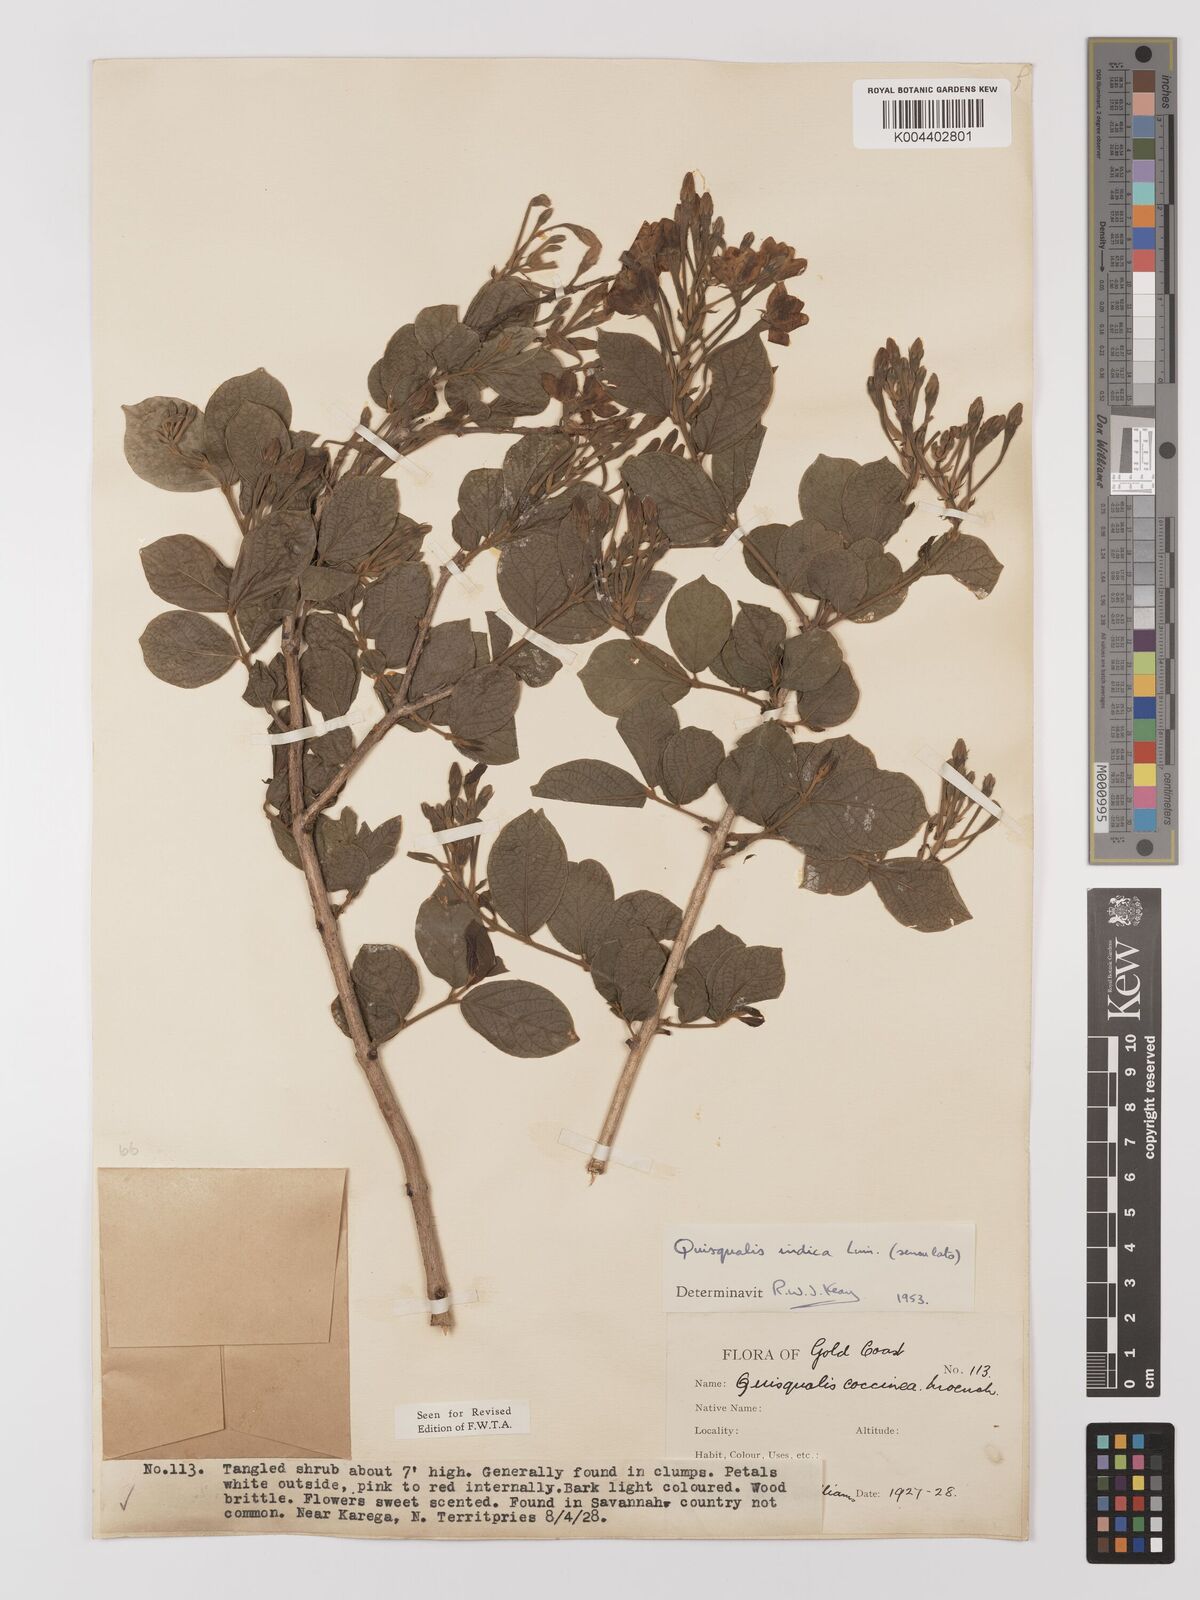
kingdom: Plantae
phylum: Tracheophyta
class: Magnoliopsida
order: Myrtales
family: Combretaceae
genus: Combretum
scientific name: Combretum
